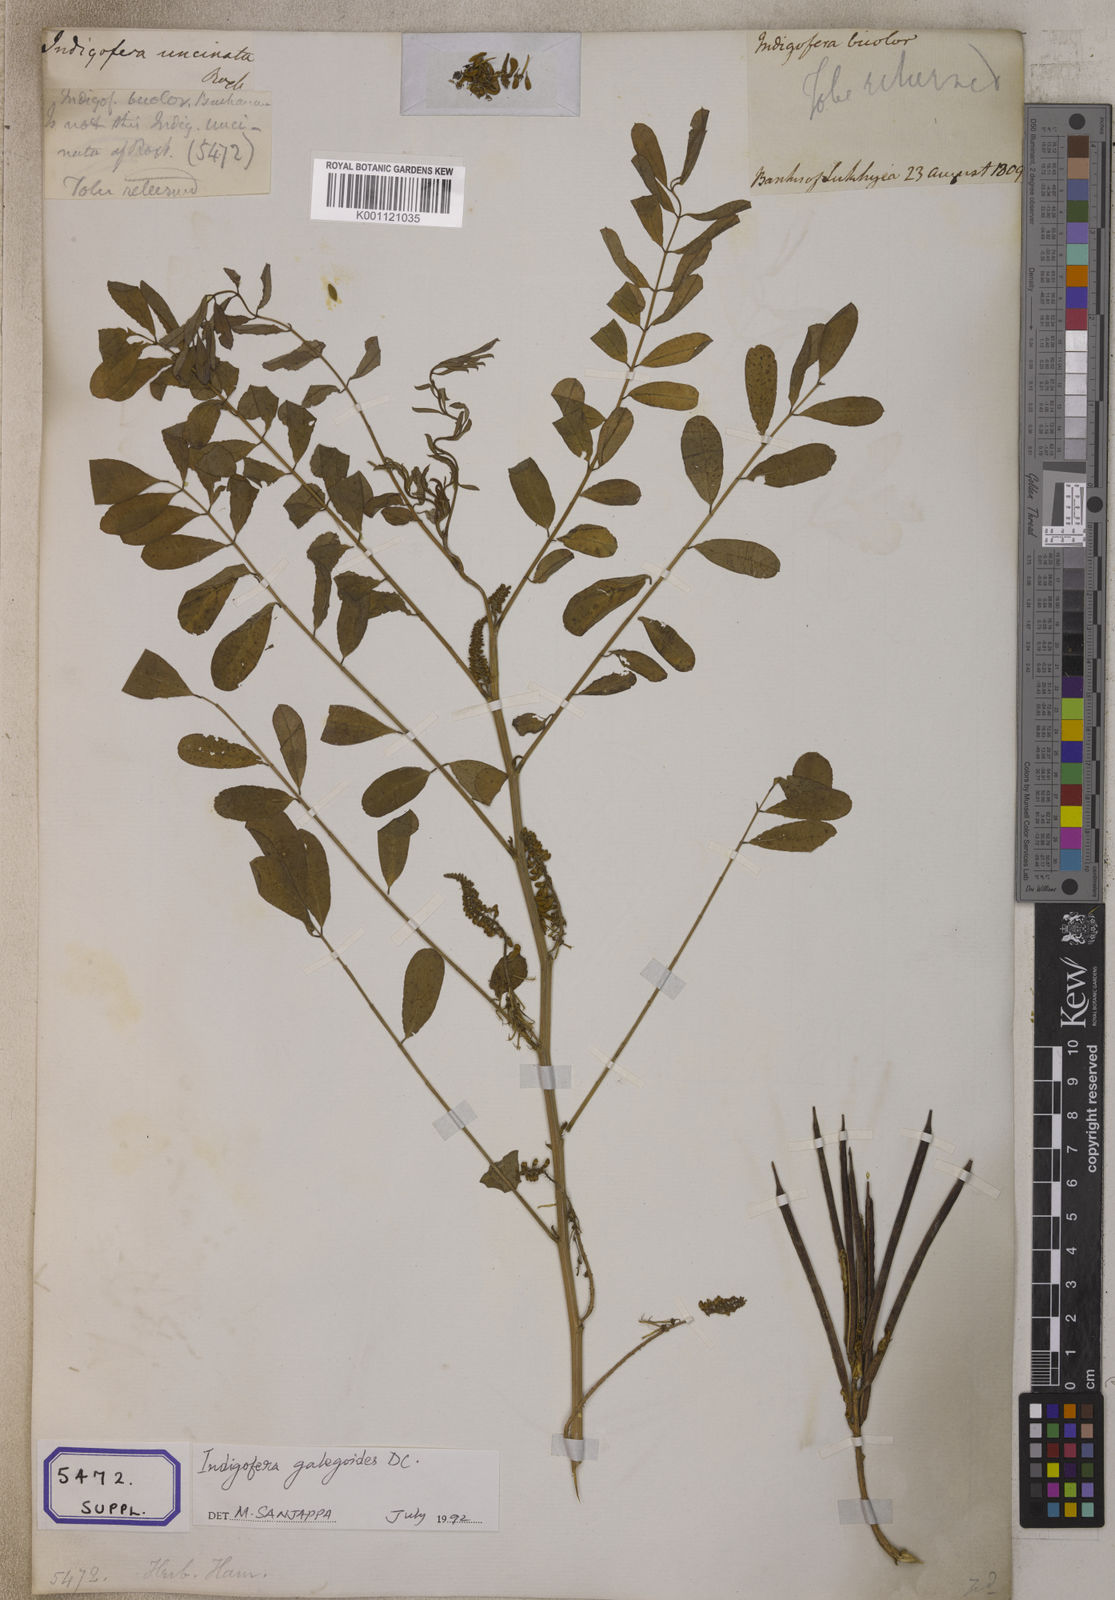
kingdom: Plantae
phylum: Tracheophyta
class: Magnoliopsida
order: Fabales
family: Fabaceae
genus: Indigofera
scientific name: Indigofera galegoides
